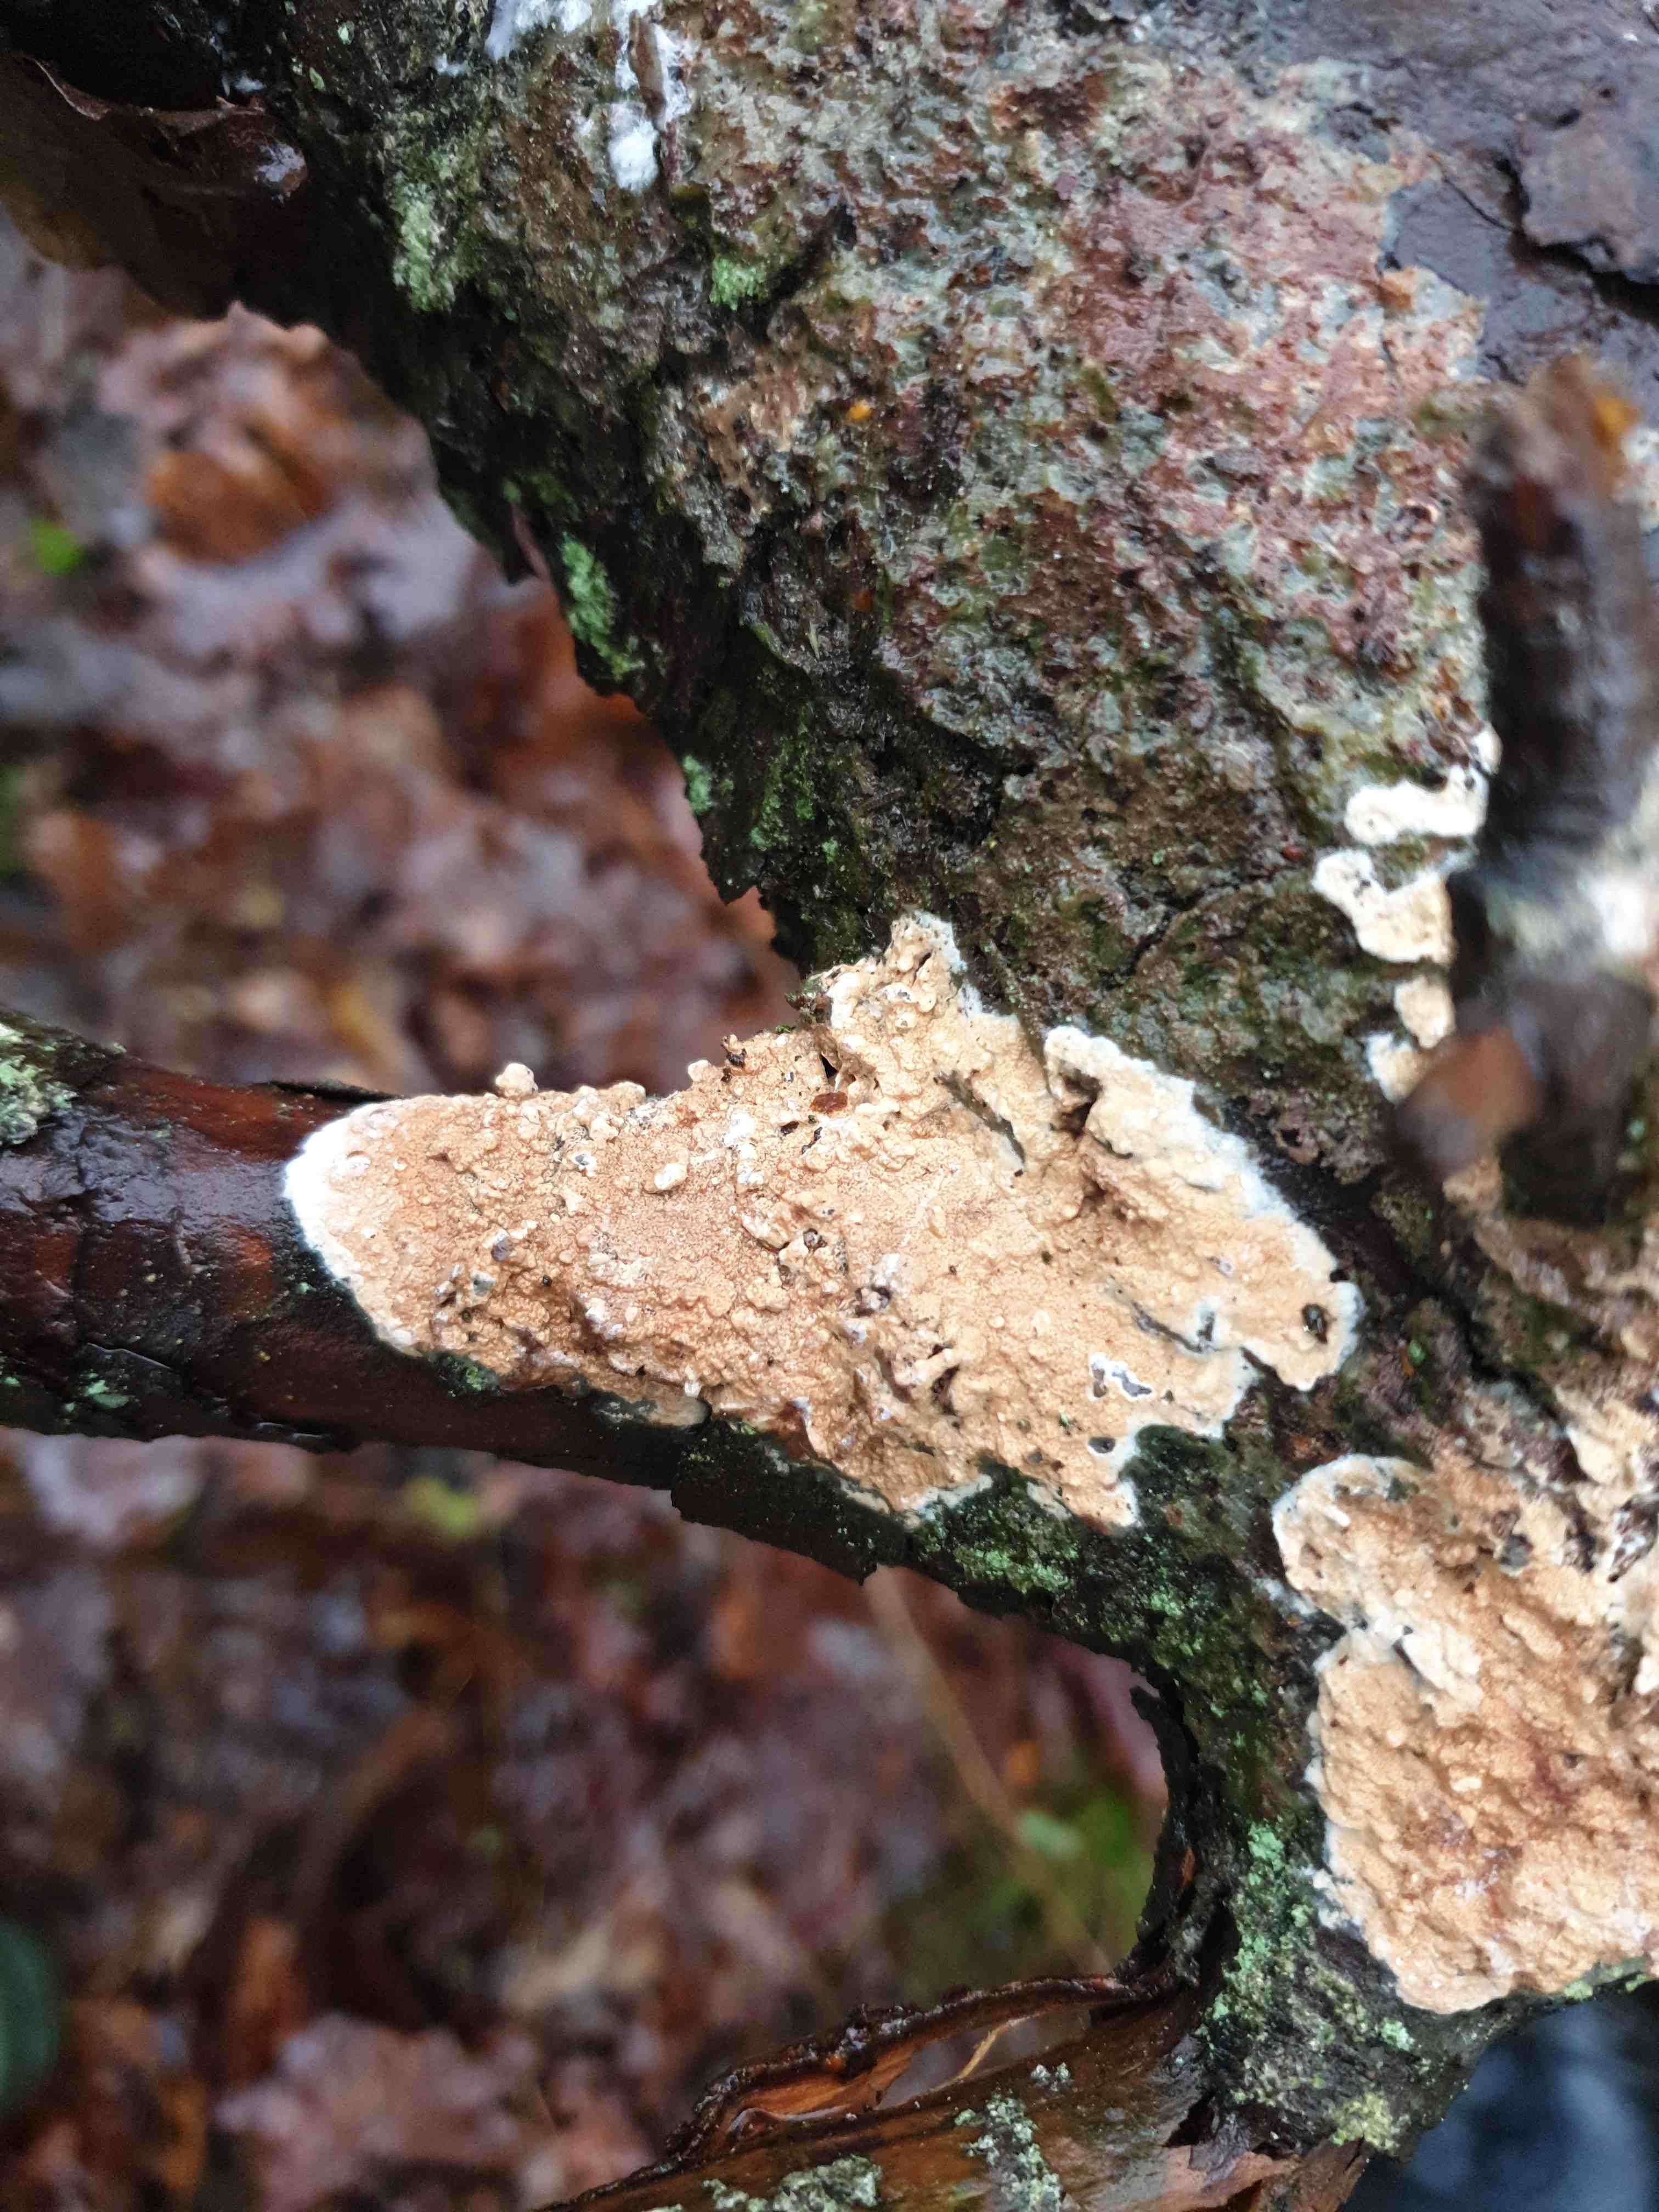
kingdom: Fungi
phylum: Basidiomycota
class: Agaricomycetes
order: Polyporales
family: Irpicaceae
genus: Meruliopsis
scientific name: Meruliopsis taxicola
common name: purpurbrun foldporesvamp
